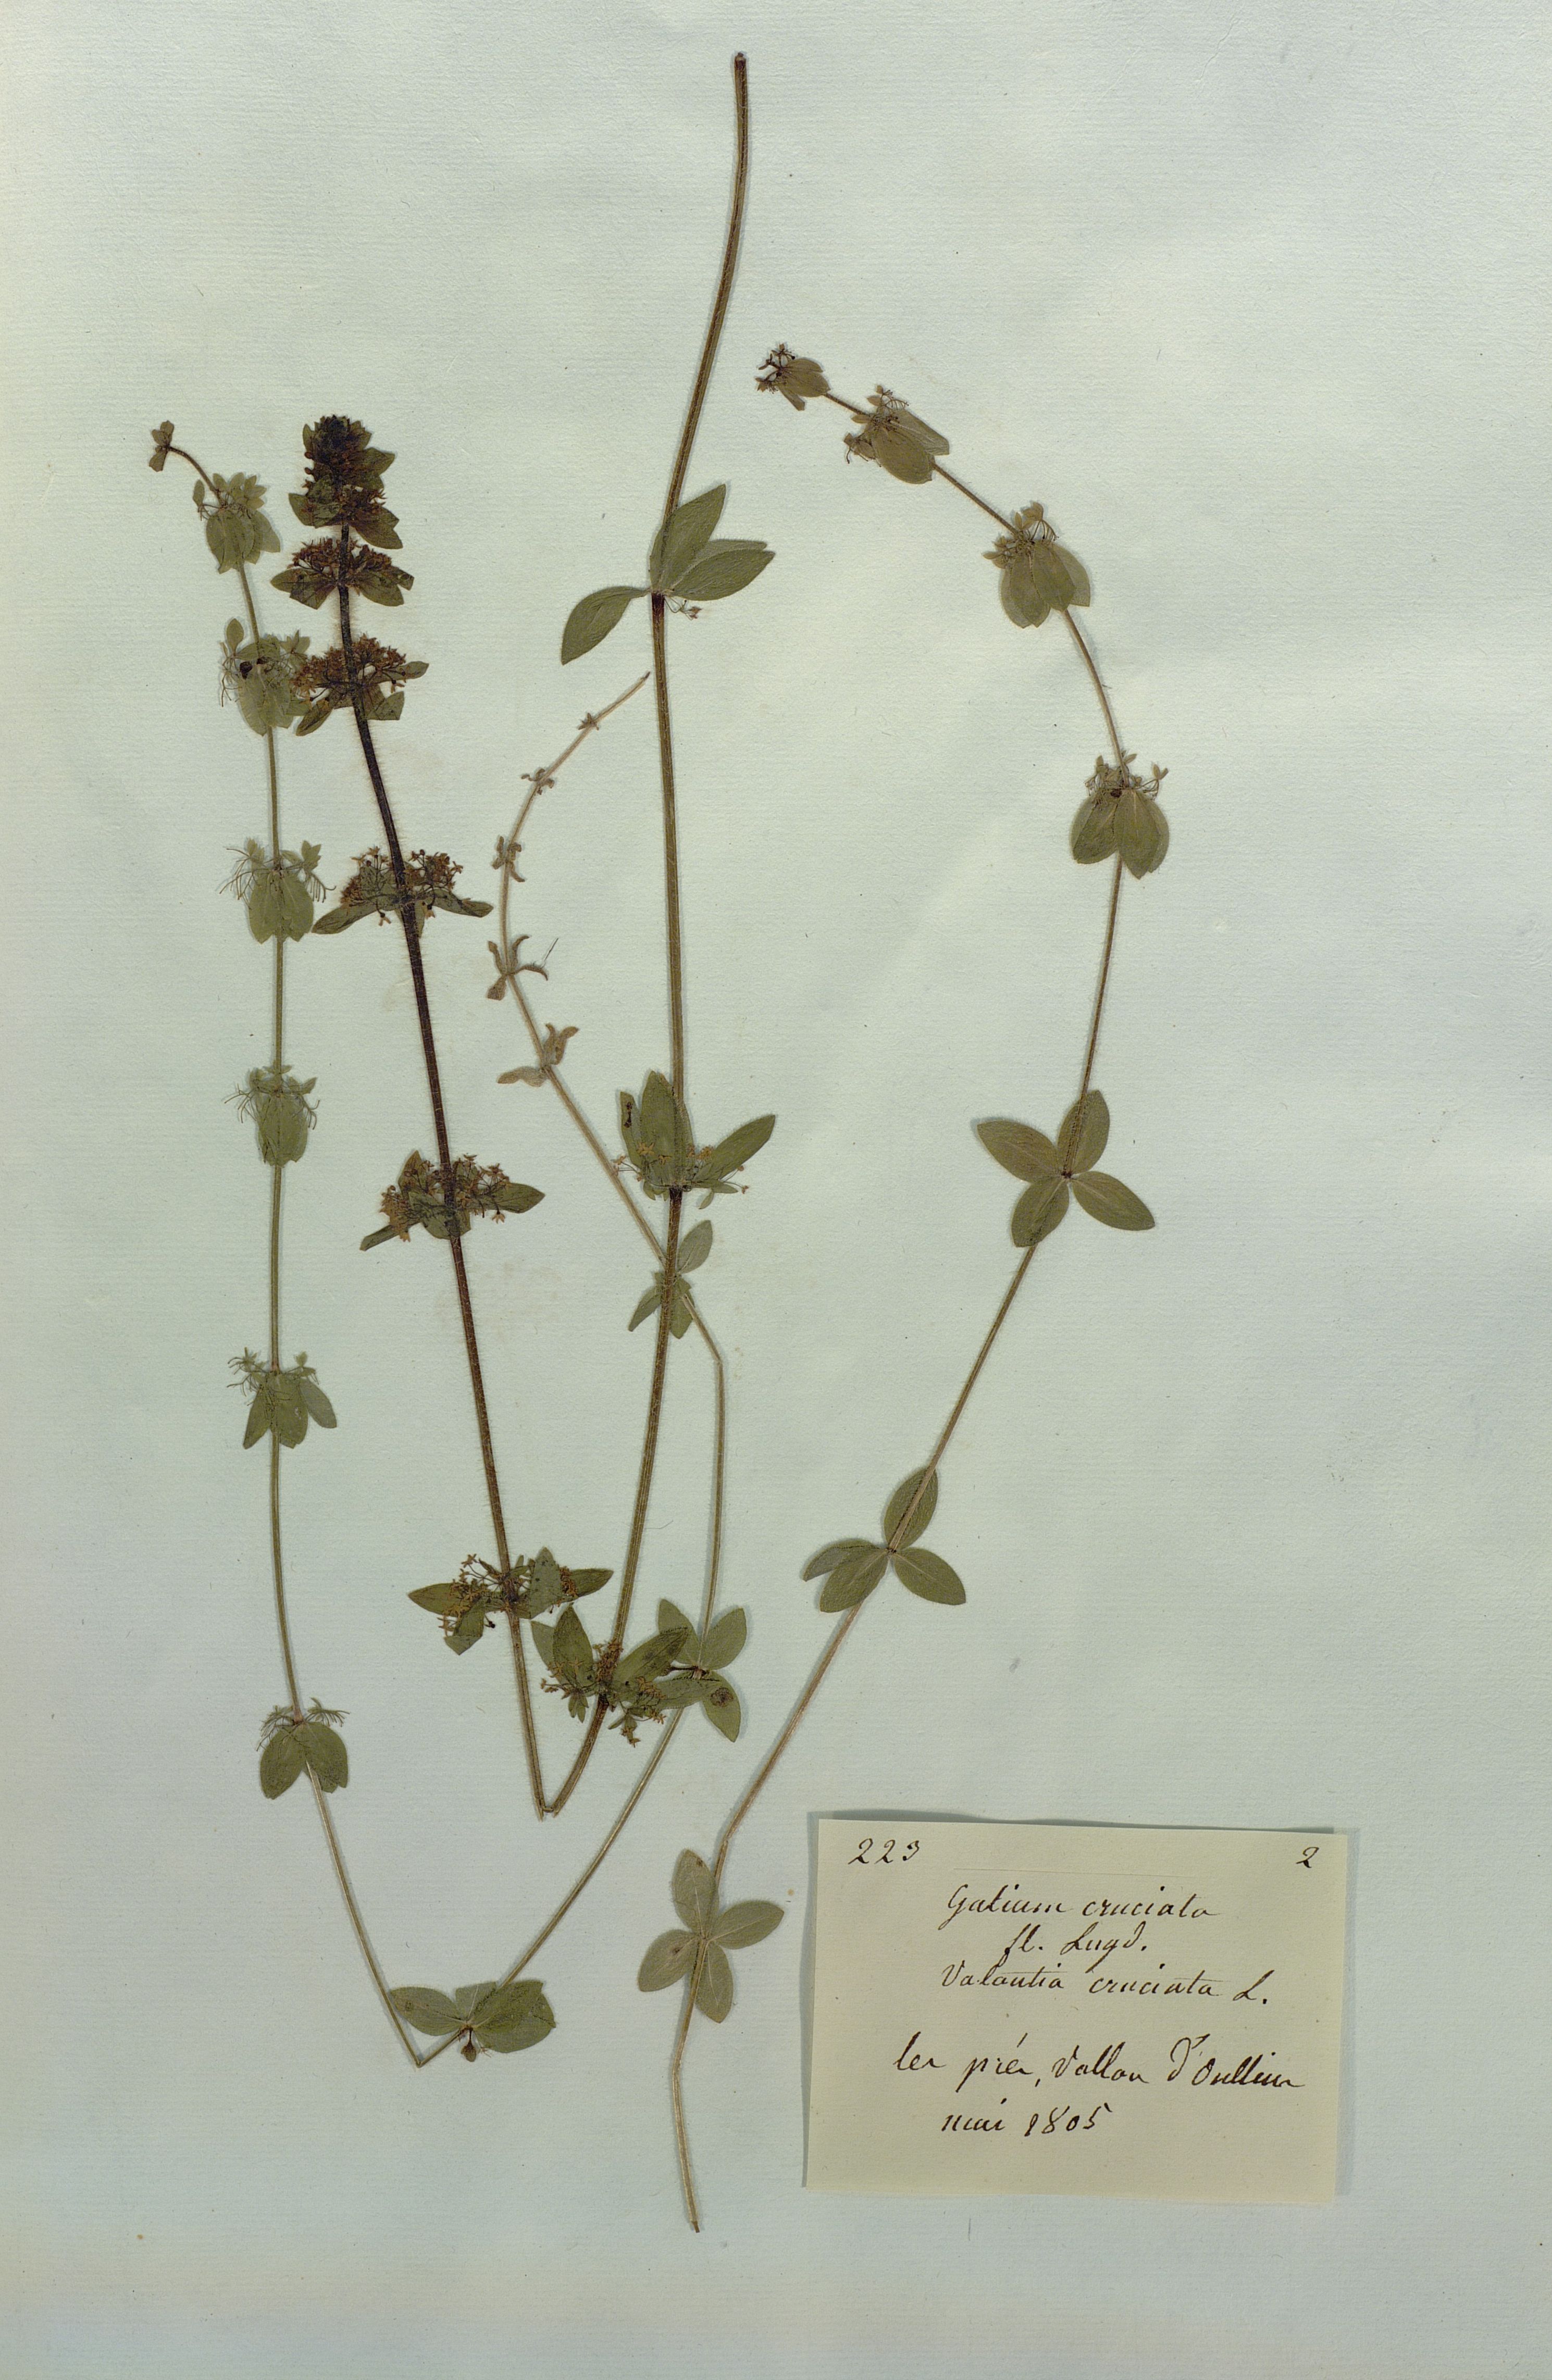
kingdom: Plantae
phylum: Tracheophyta
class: Magnoliopsida
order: Gentianales
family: Rubiaceae
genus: Cruciata
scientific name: Cruciata laevipes
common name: Crosswort
